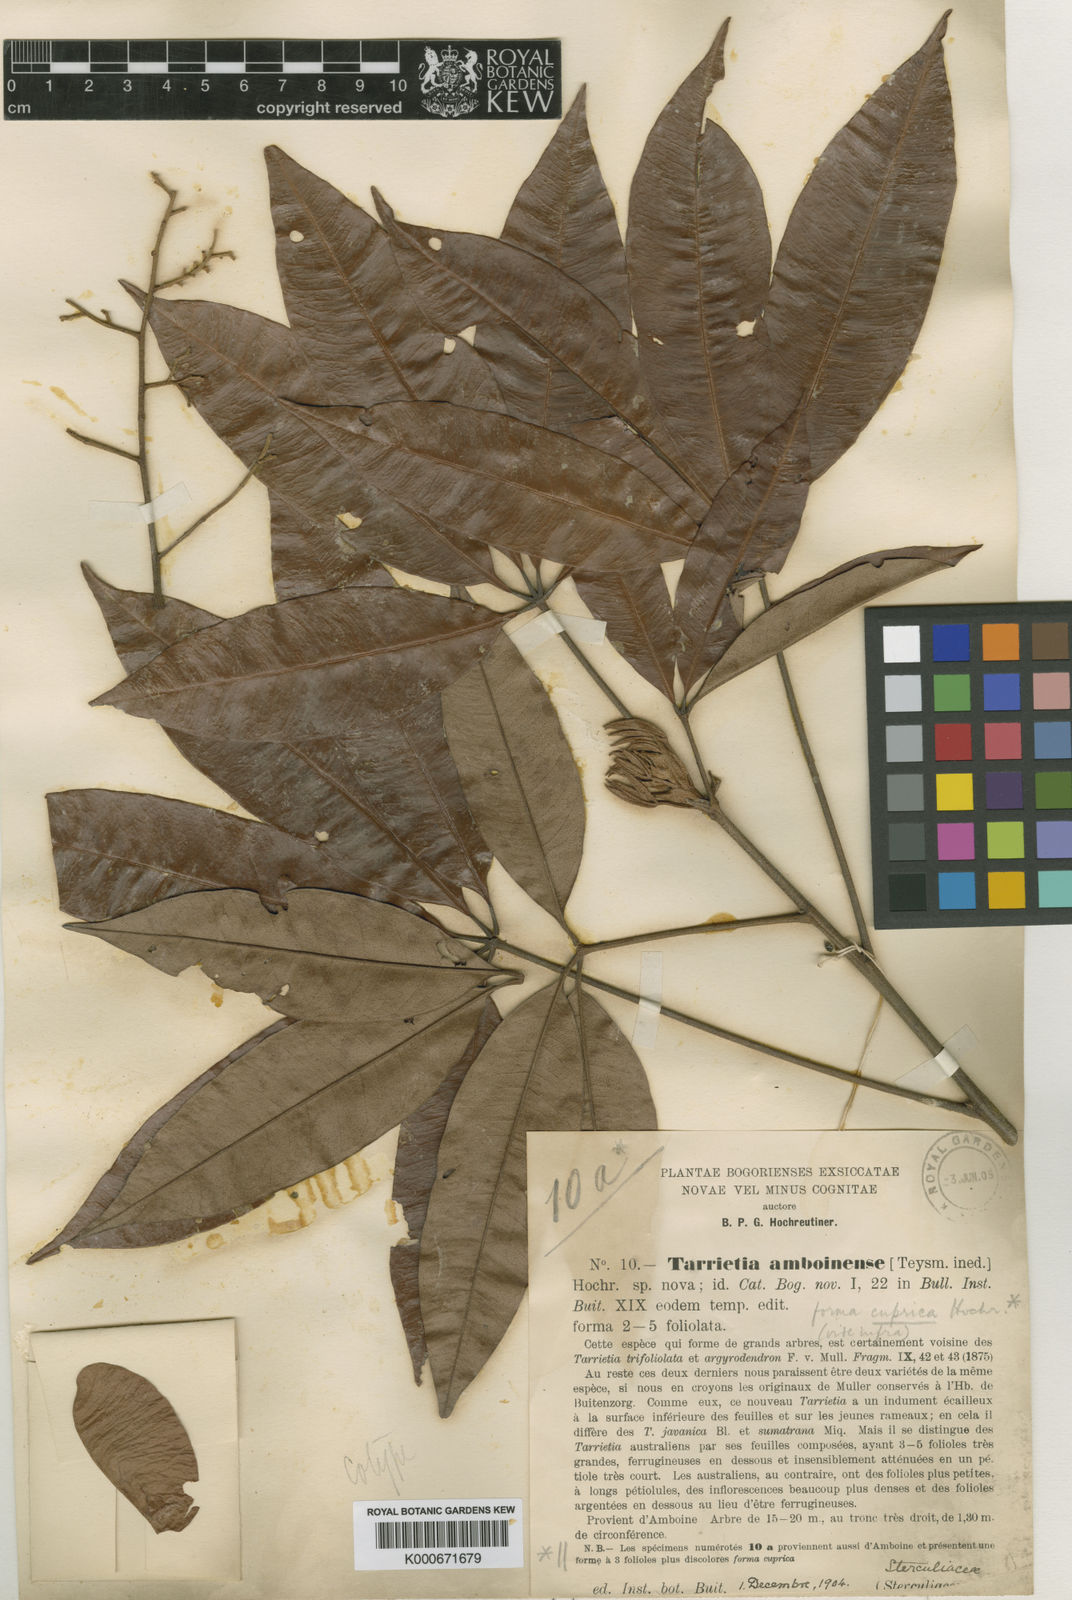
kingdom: Plantae
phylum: Tracheophyta
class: Magnoliopsida
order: Malvales
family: Malvaceae
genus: Argyrodendron
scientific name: Argyrodendron trifoliolatum
